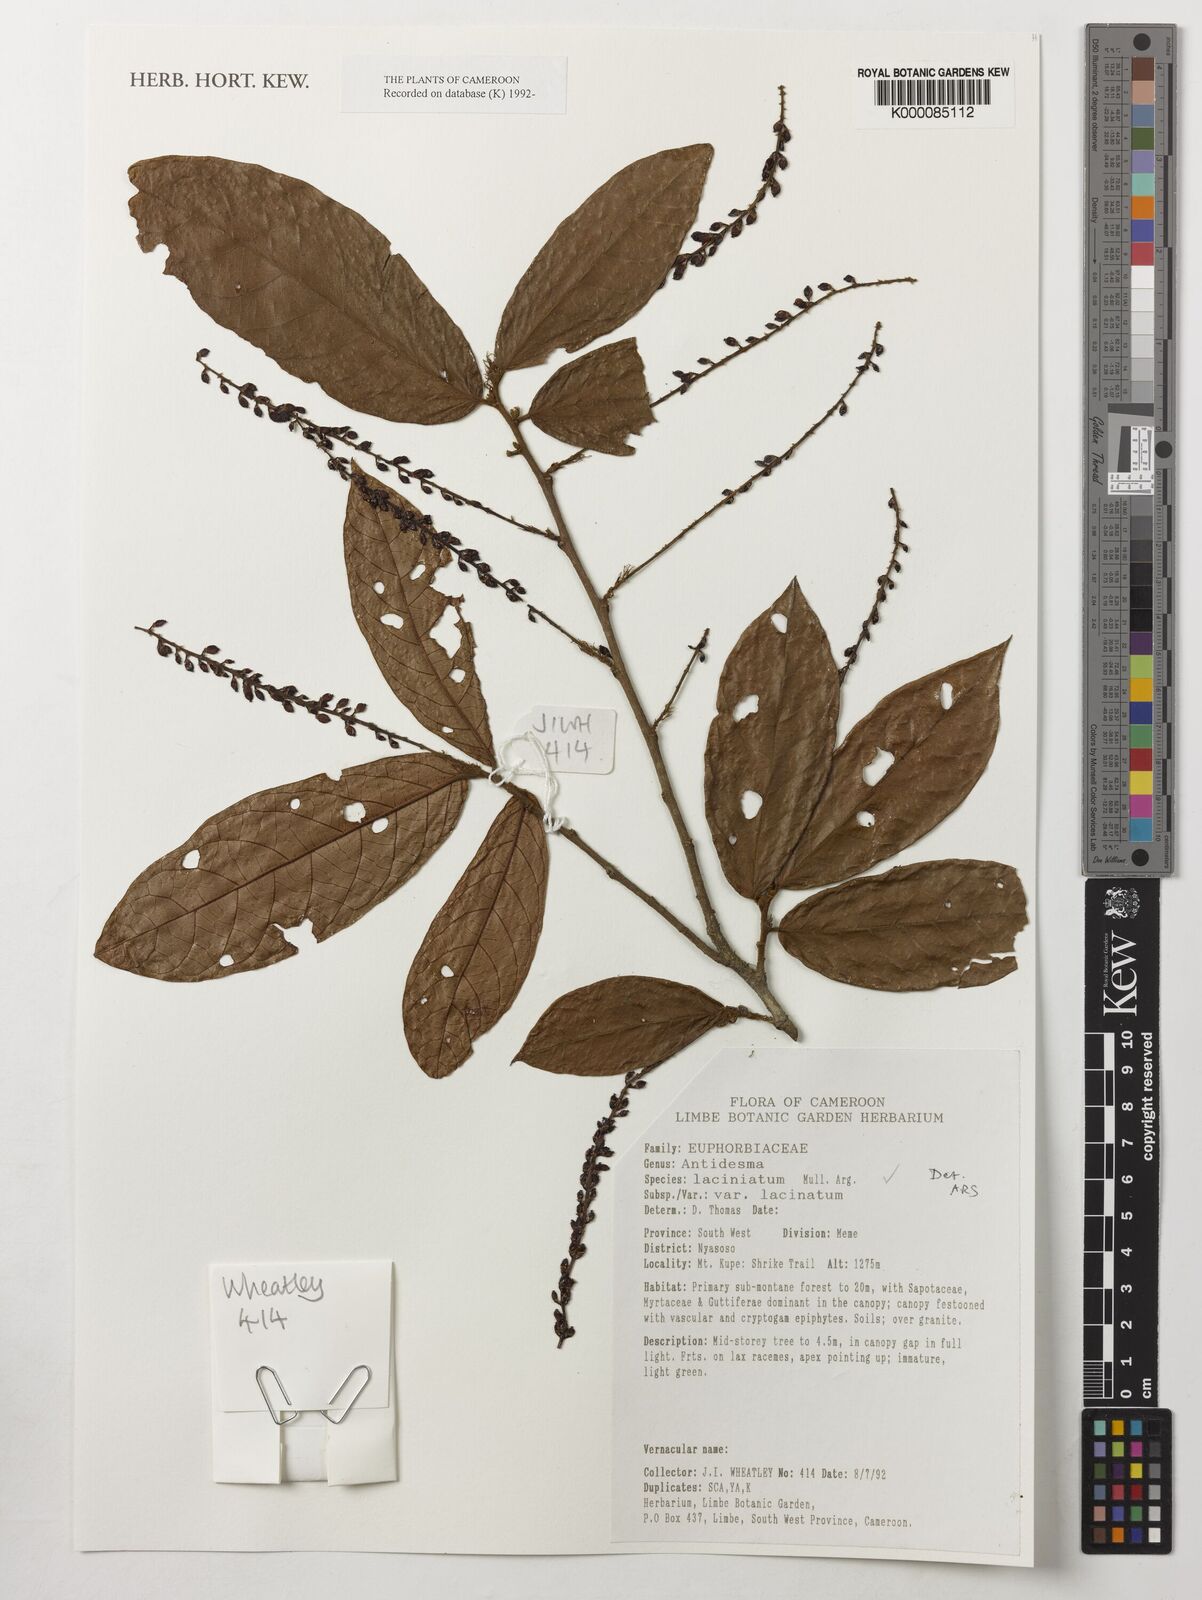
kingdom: Plantae
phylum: Tracheophyta
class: Magnoliopsida
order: Malpighiales
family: Phyllanthaceae
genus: Antidesma
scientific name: Antidesma
